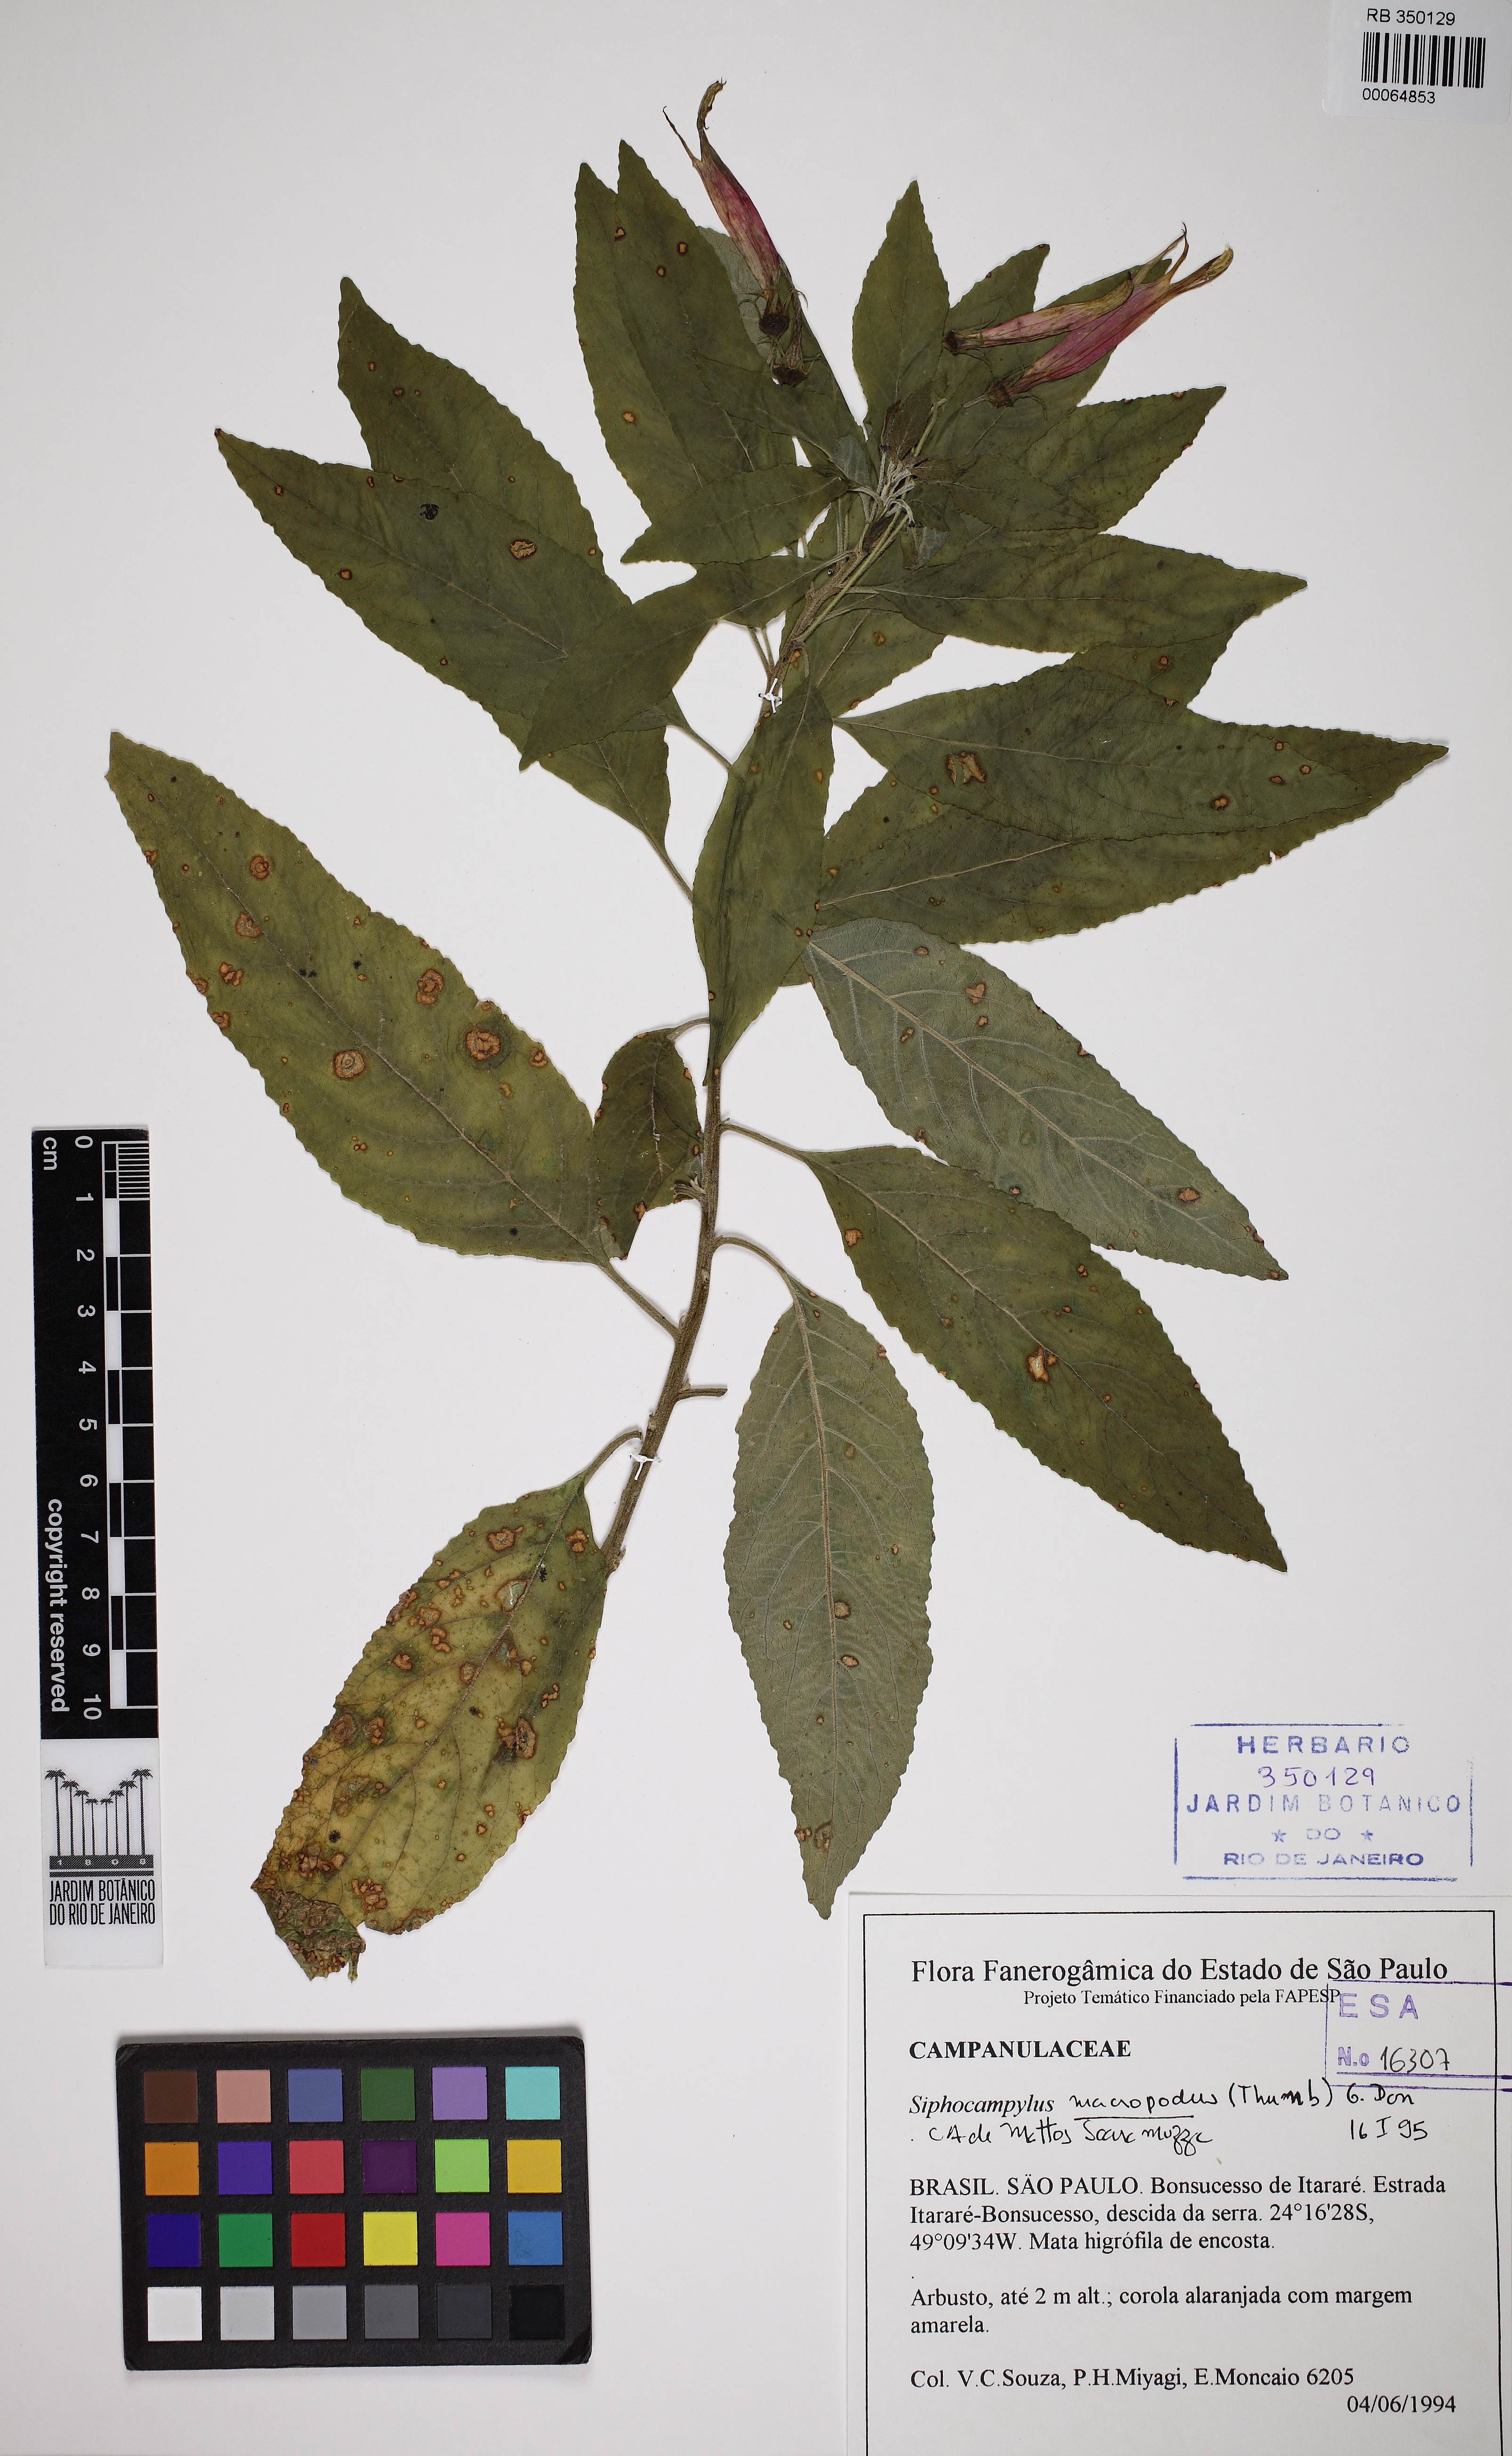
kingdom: Plantae
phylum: Tracheophyta
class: Magnoliopsida
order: Asterales
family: Campanulaceae
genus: Centropogon
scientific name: Centropogon macrophyllus
